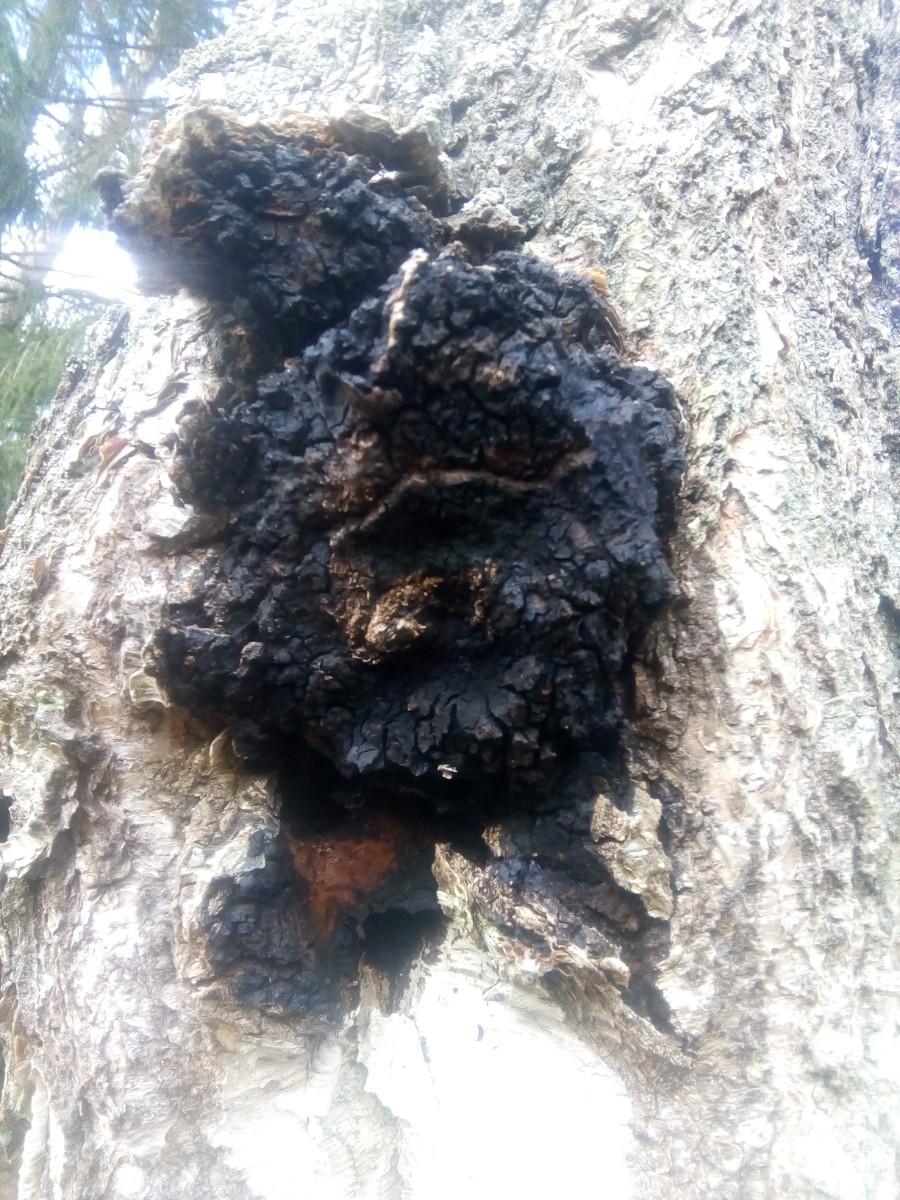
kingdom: Fungi
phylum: Basidiomycota
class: Agaricomycetes
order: Hymenochaetales
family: Hymenochaetaceae
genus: Inonotus
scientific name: Inonotus obliquus
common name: birke-spejlporesvamp
